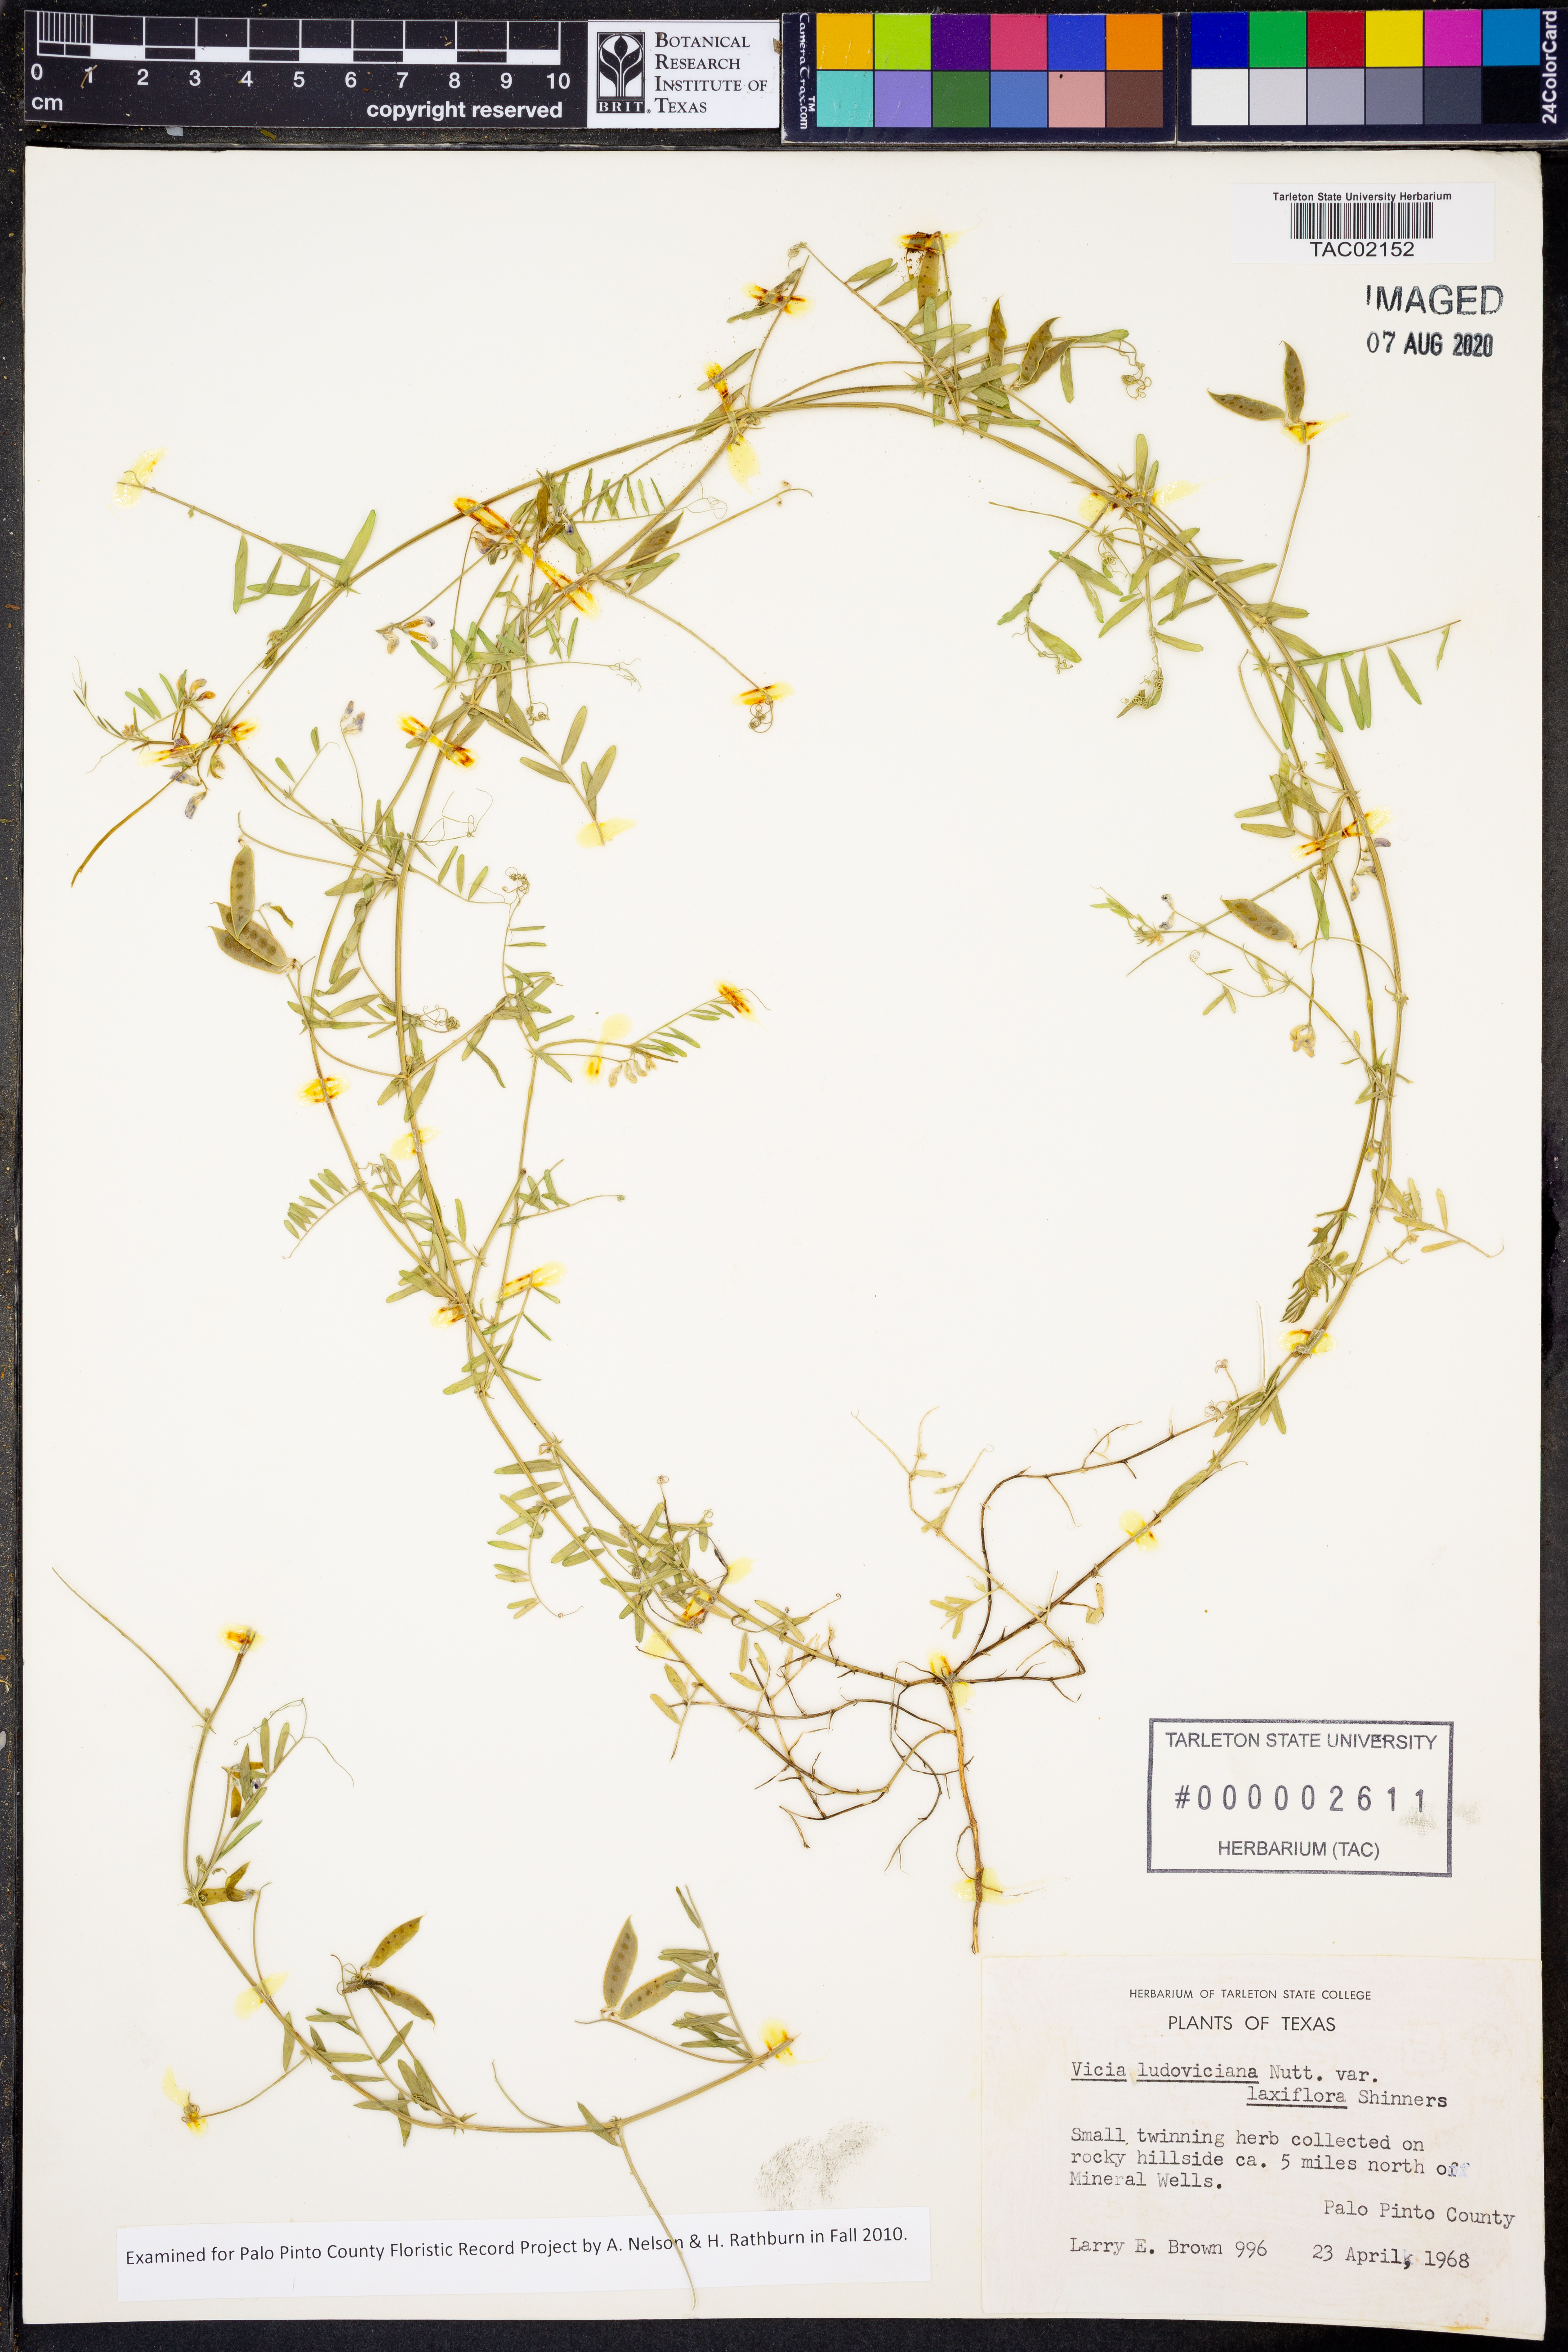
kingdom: Plantae
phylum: Tracheophyta
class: Magnoliopsida
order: Fabales
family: Fabaceae
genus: Vicia
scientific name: Vicia ludoviciana
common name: Louisiana vetch
